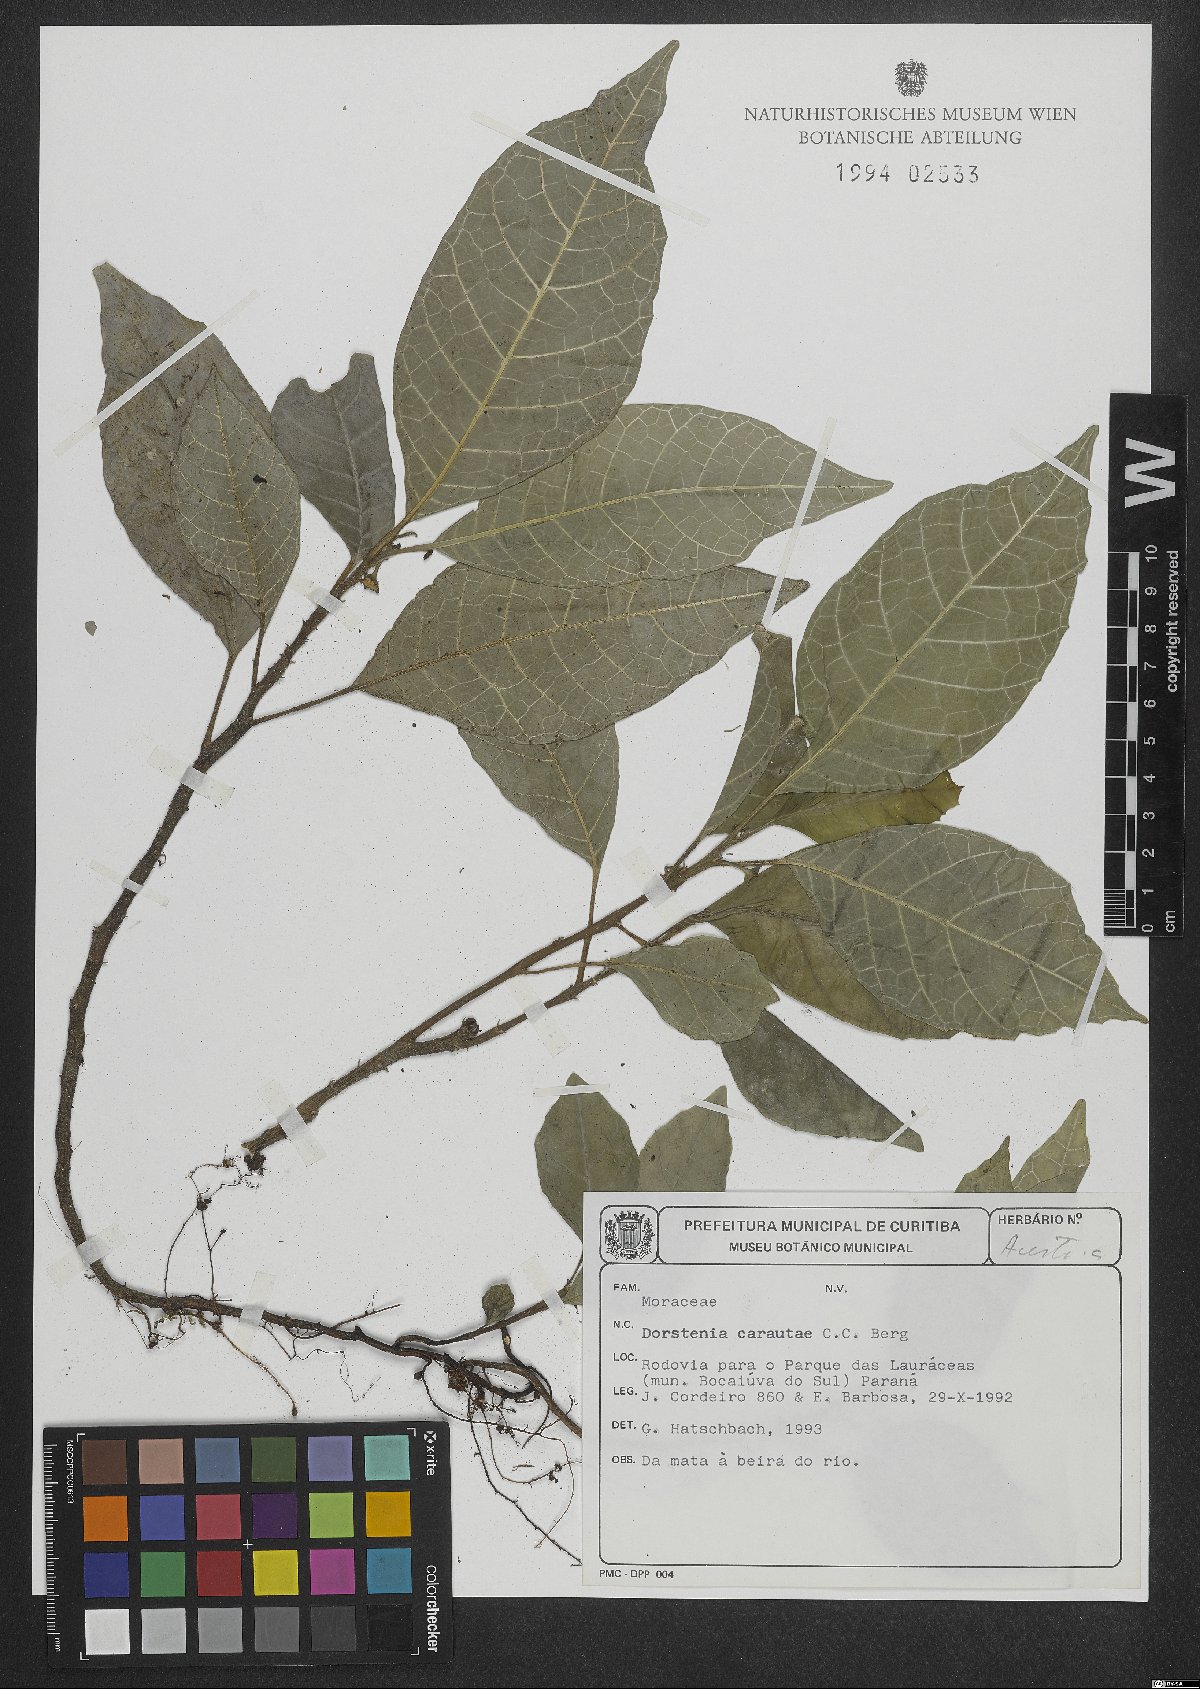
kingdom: Plantae
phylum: Tracheophyta
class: Magnoliopsida
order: Rosales
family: Moraceae
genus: Dorstenia
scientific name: Dorstenia carautae
